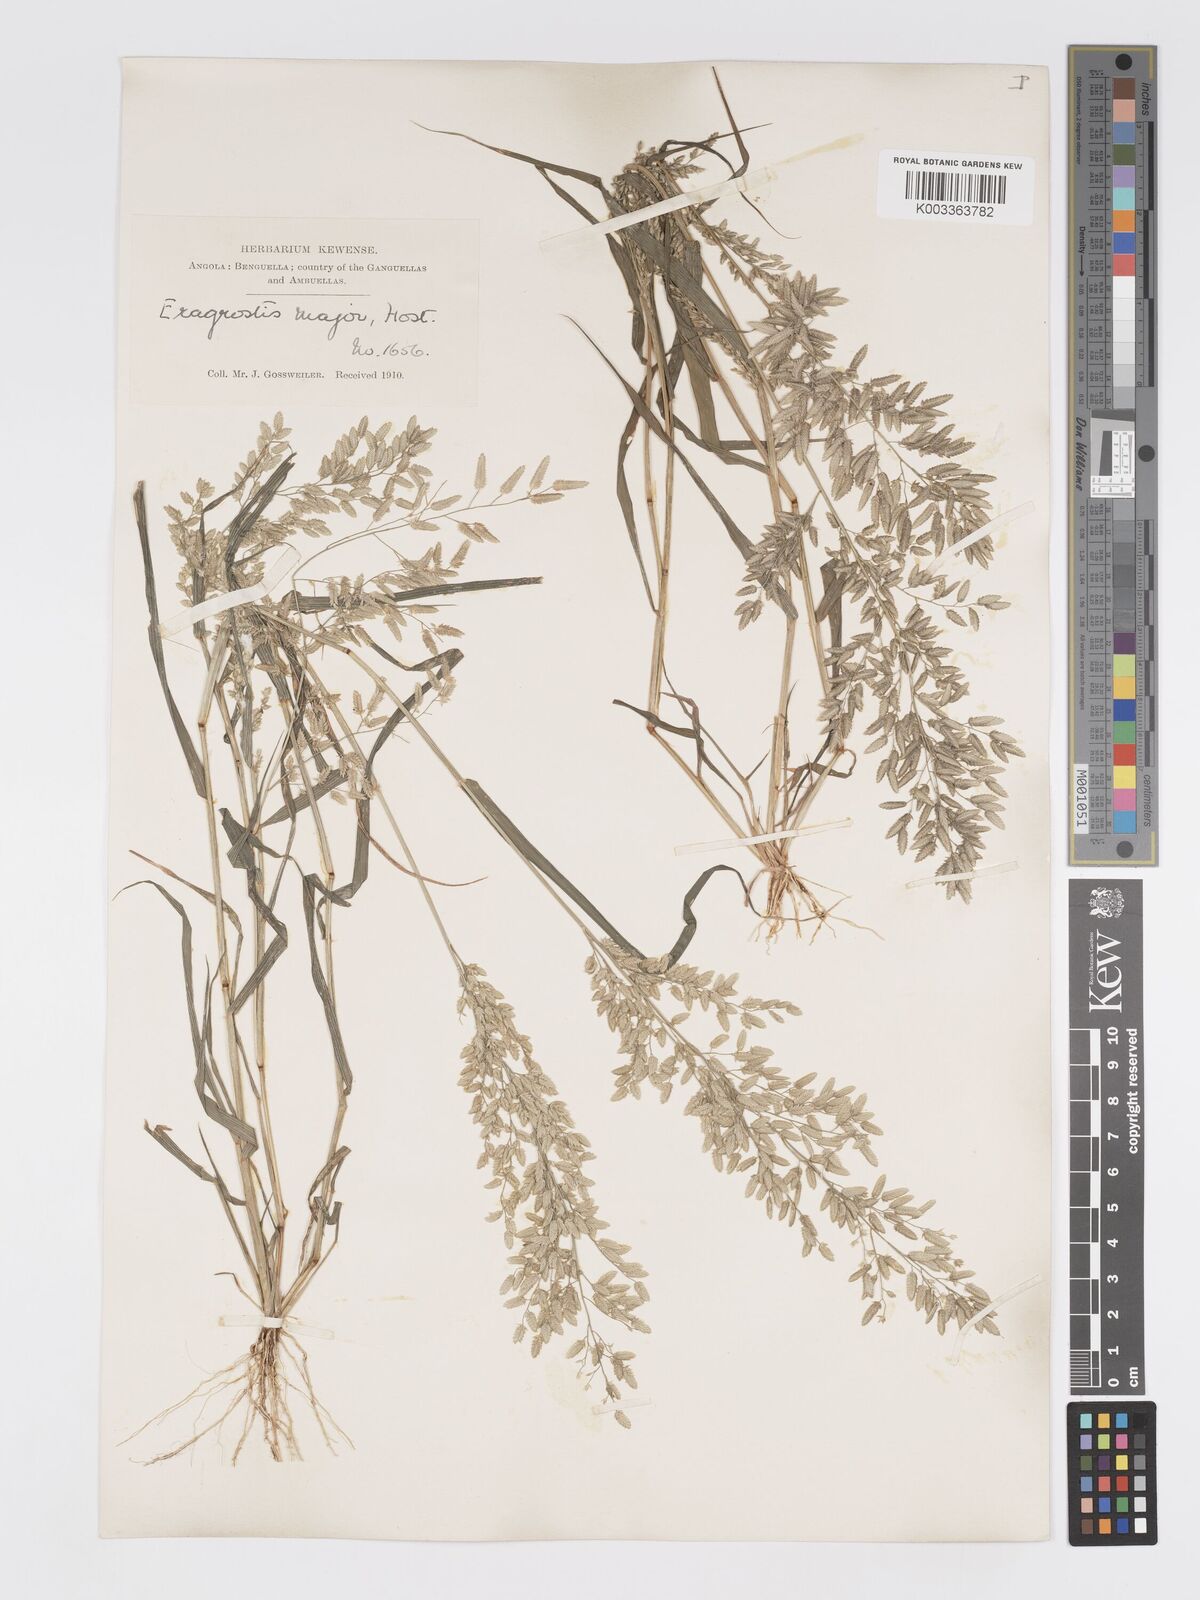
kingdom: Plantae
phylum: Tracheophyta
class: Liliopsida
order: Poales
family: Poaceae
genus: Eragrostis
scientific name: Eragrostis cilianensis
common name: Stinkgrass
